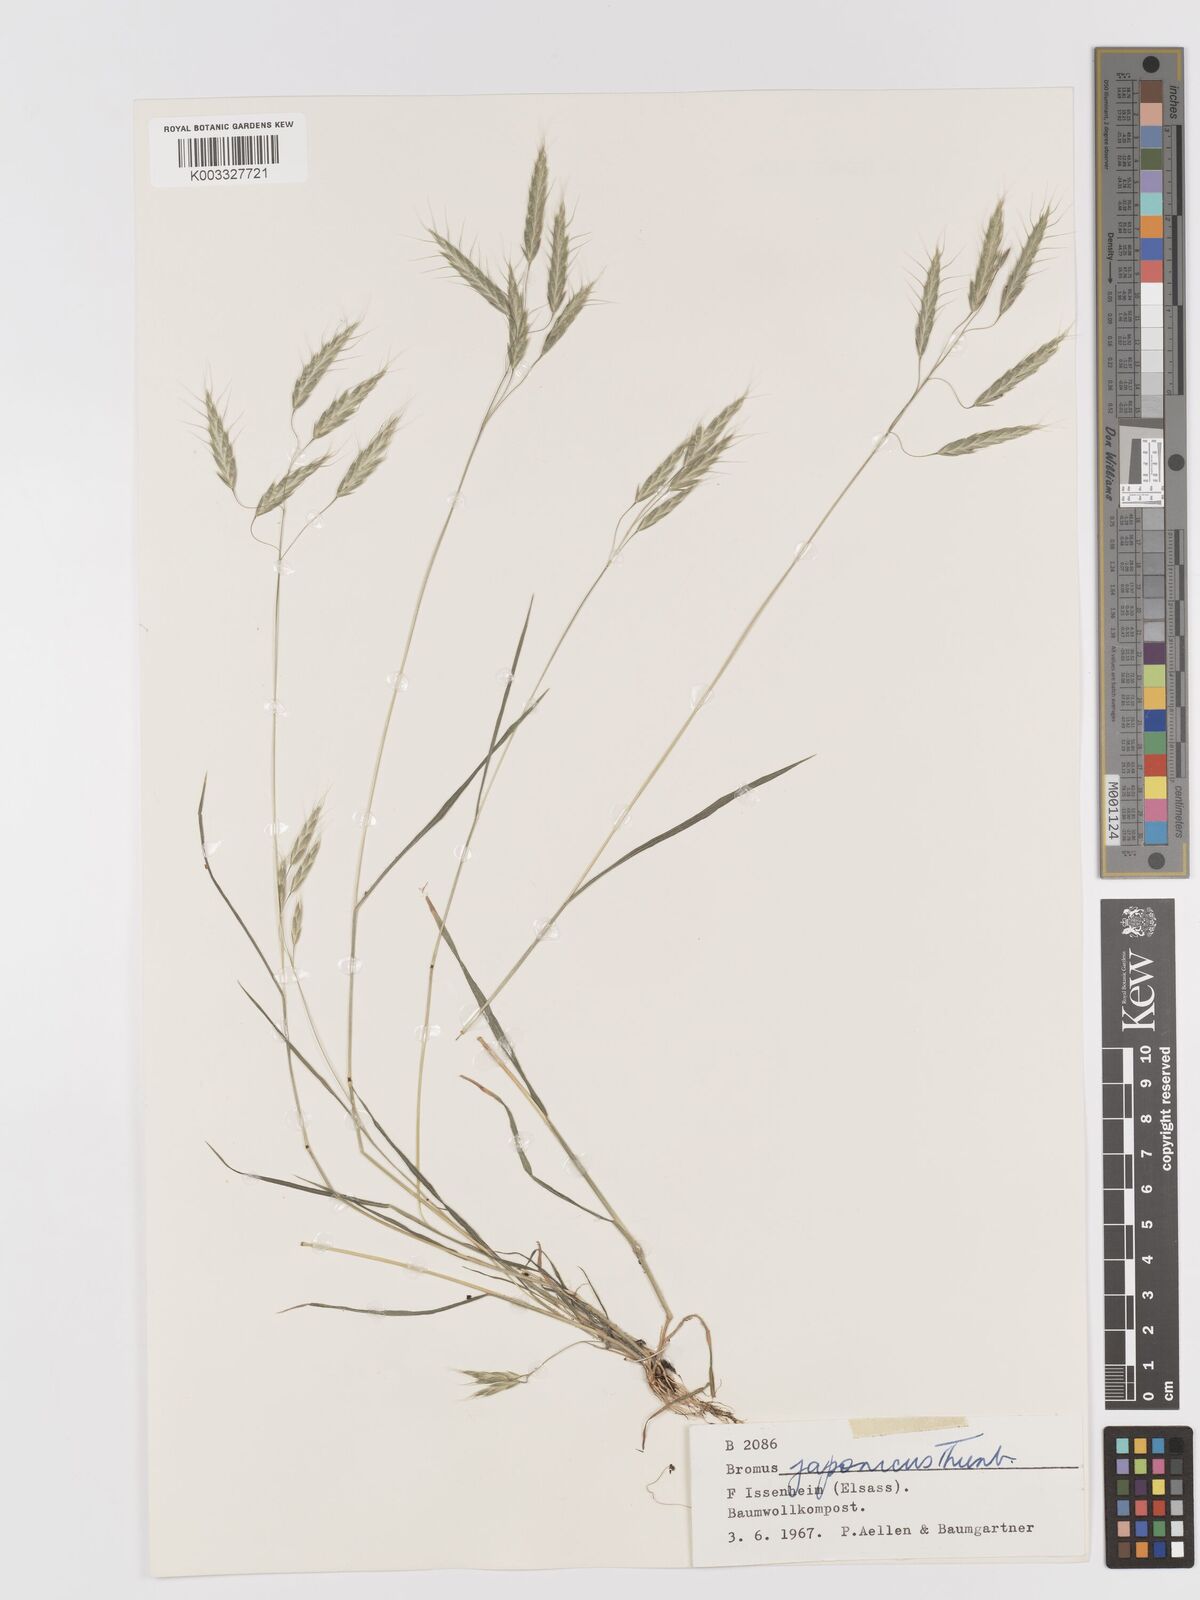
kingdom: Plantae
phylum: Tracheophyta
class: Liliopsida
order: Poales
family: Poaceae
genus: Bromus
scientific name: Bromus japonicus
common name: Japanese brome
